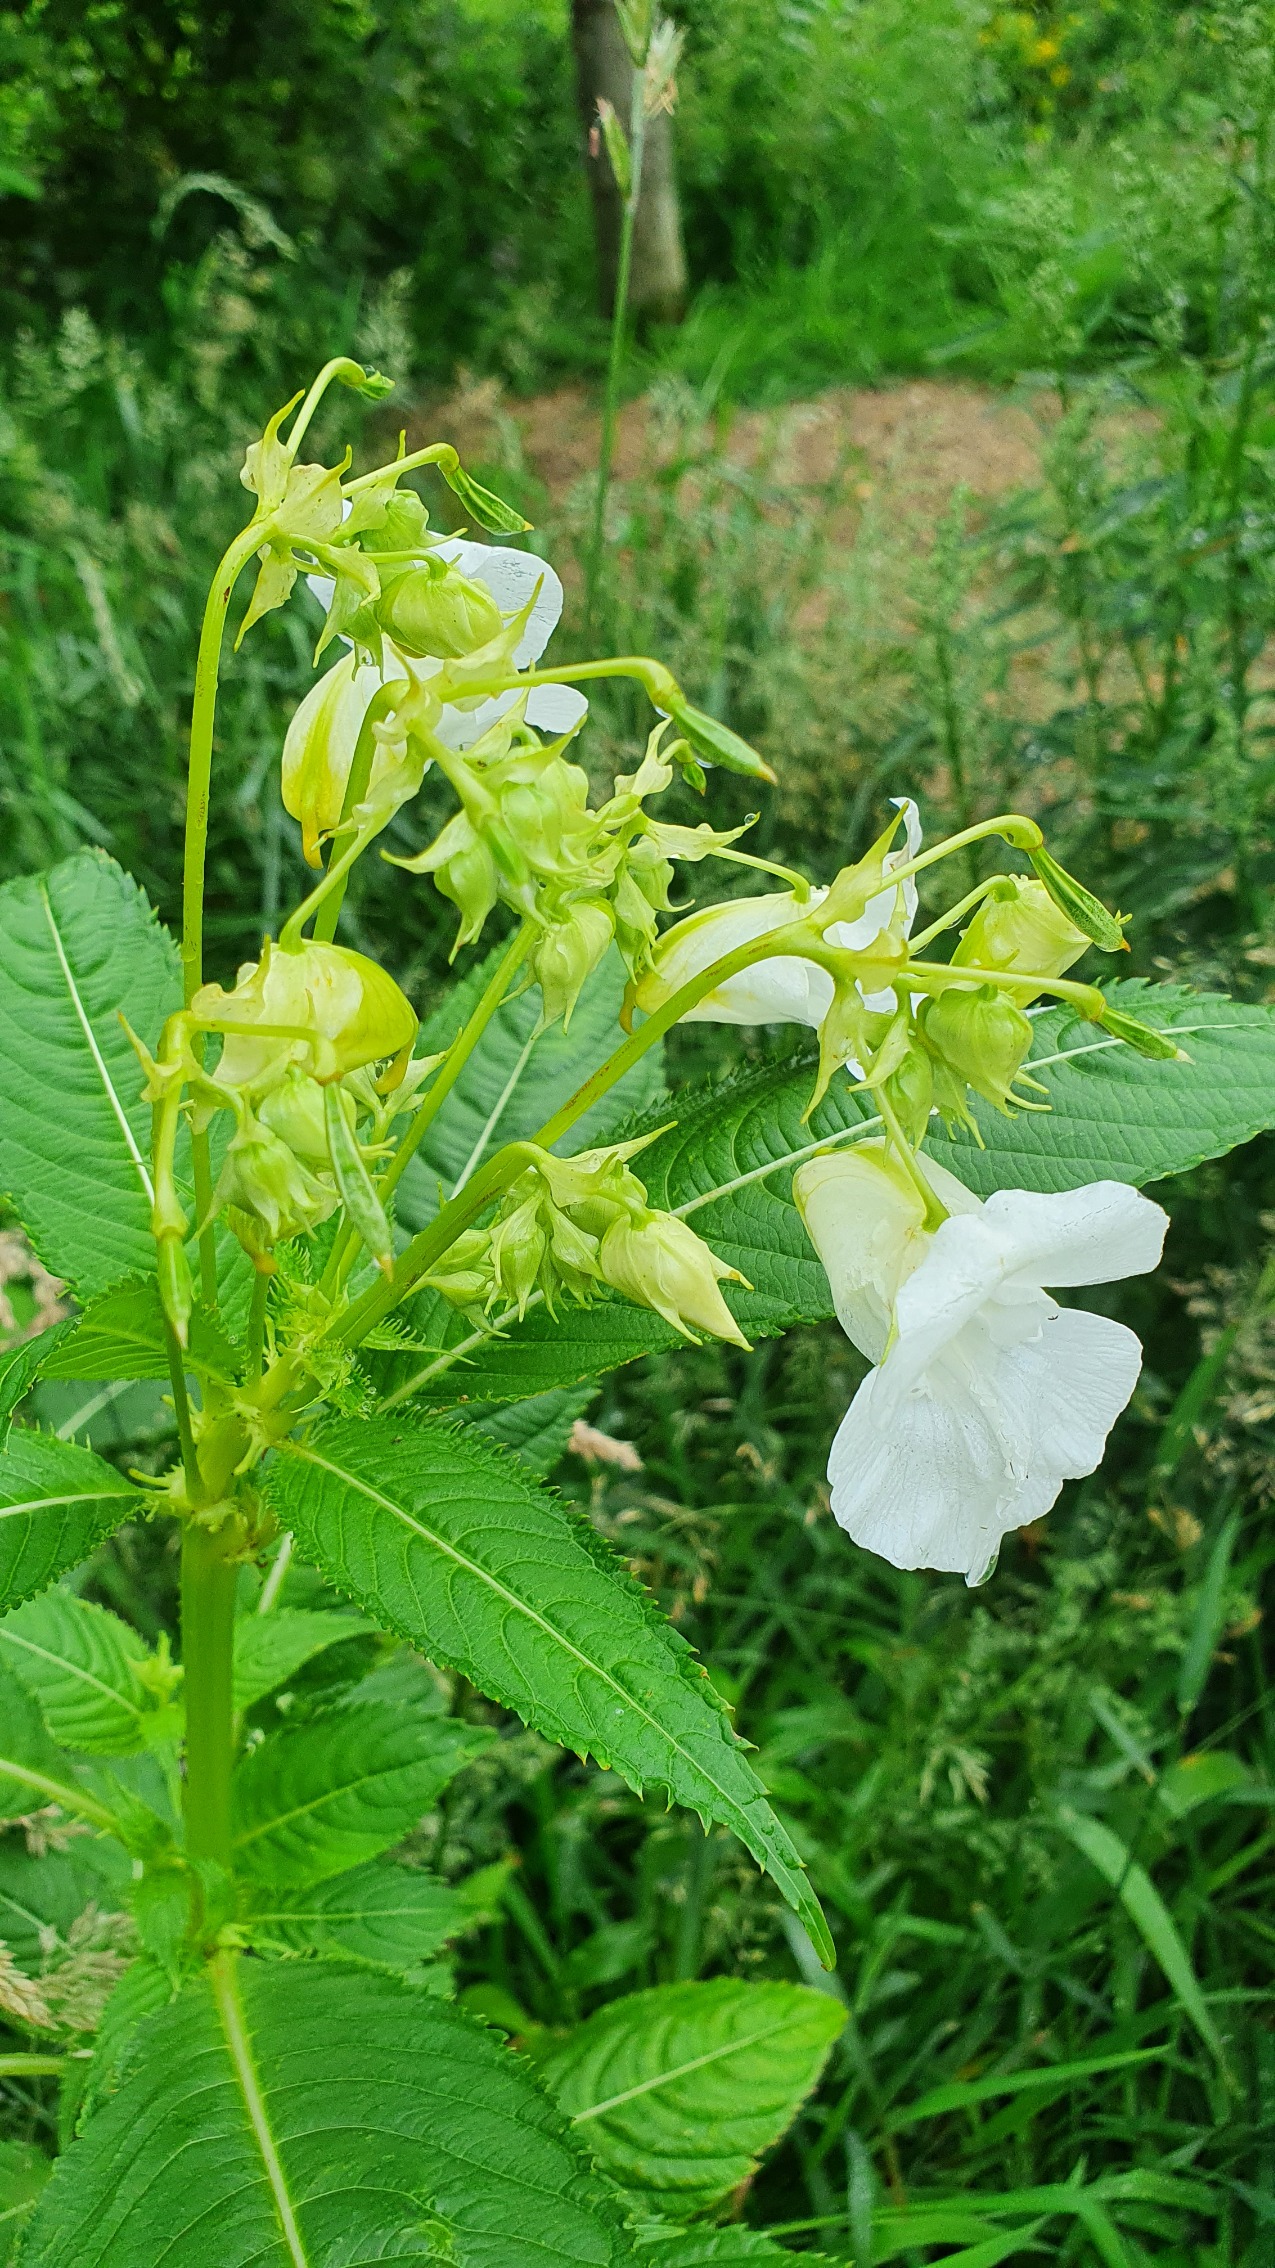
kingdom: Plantae
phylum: Tracheophyta
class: Magnoliopsida
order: Ericales
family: Balsaminaceae
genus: Impatiens
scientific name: Impatiens glandulifera
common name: Kæmpe-balsamin
